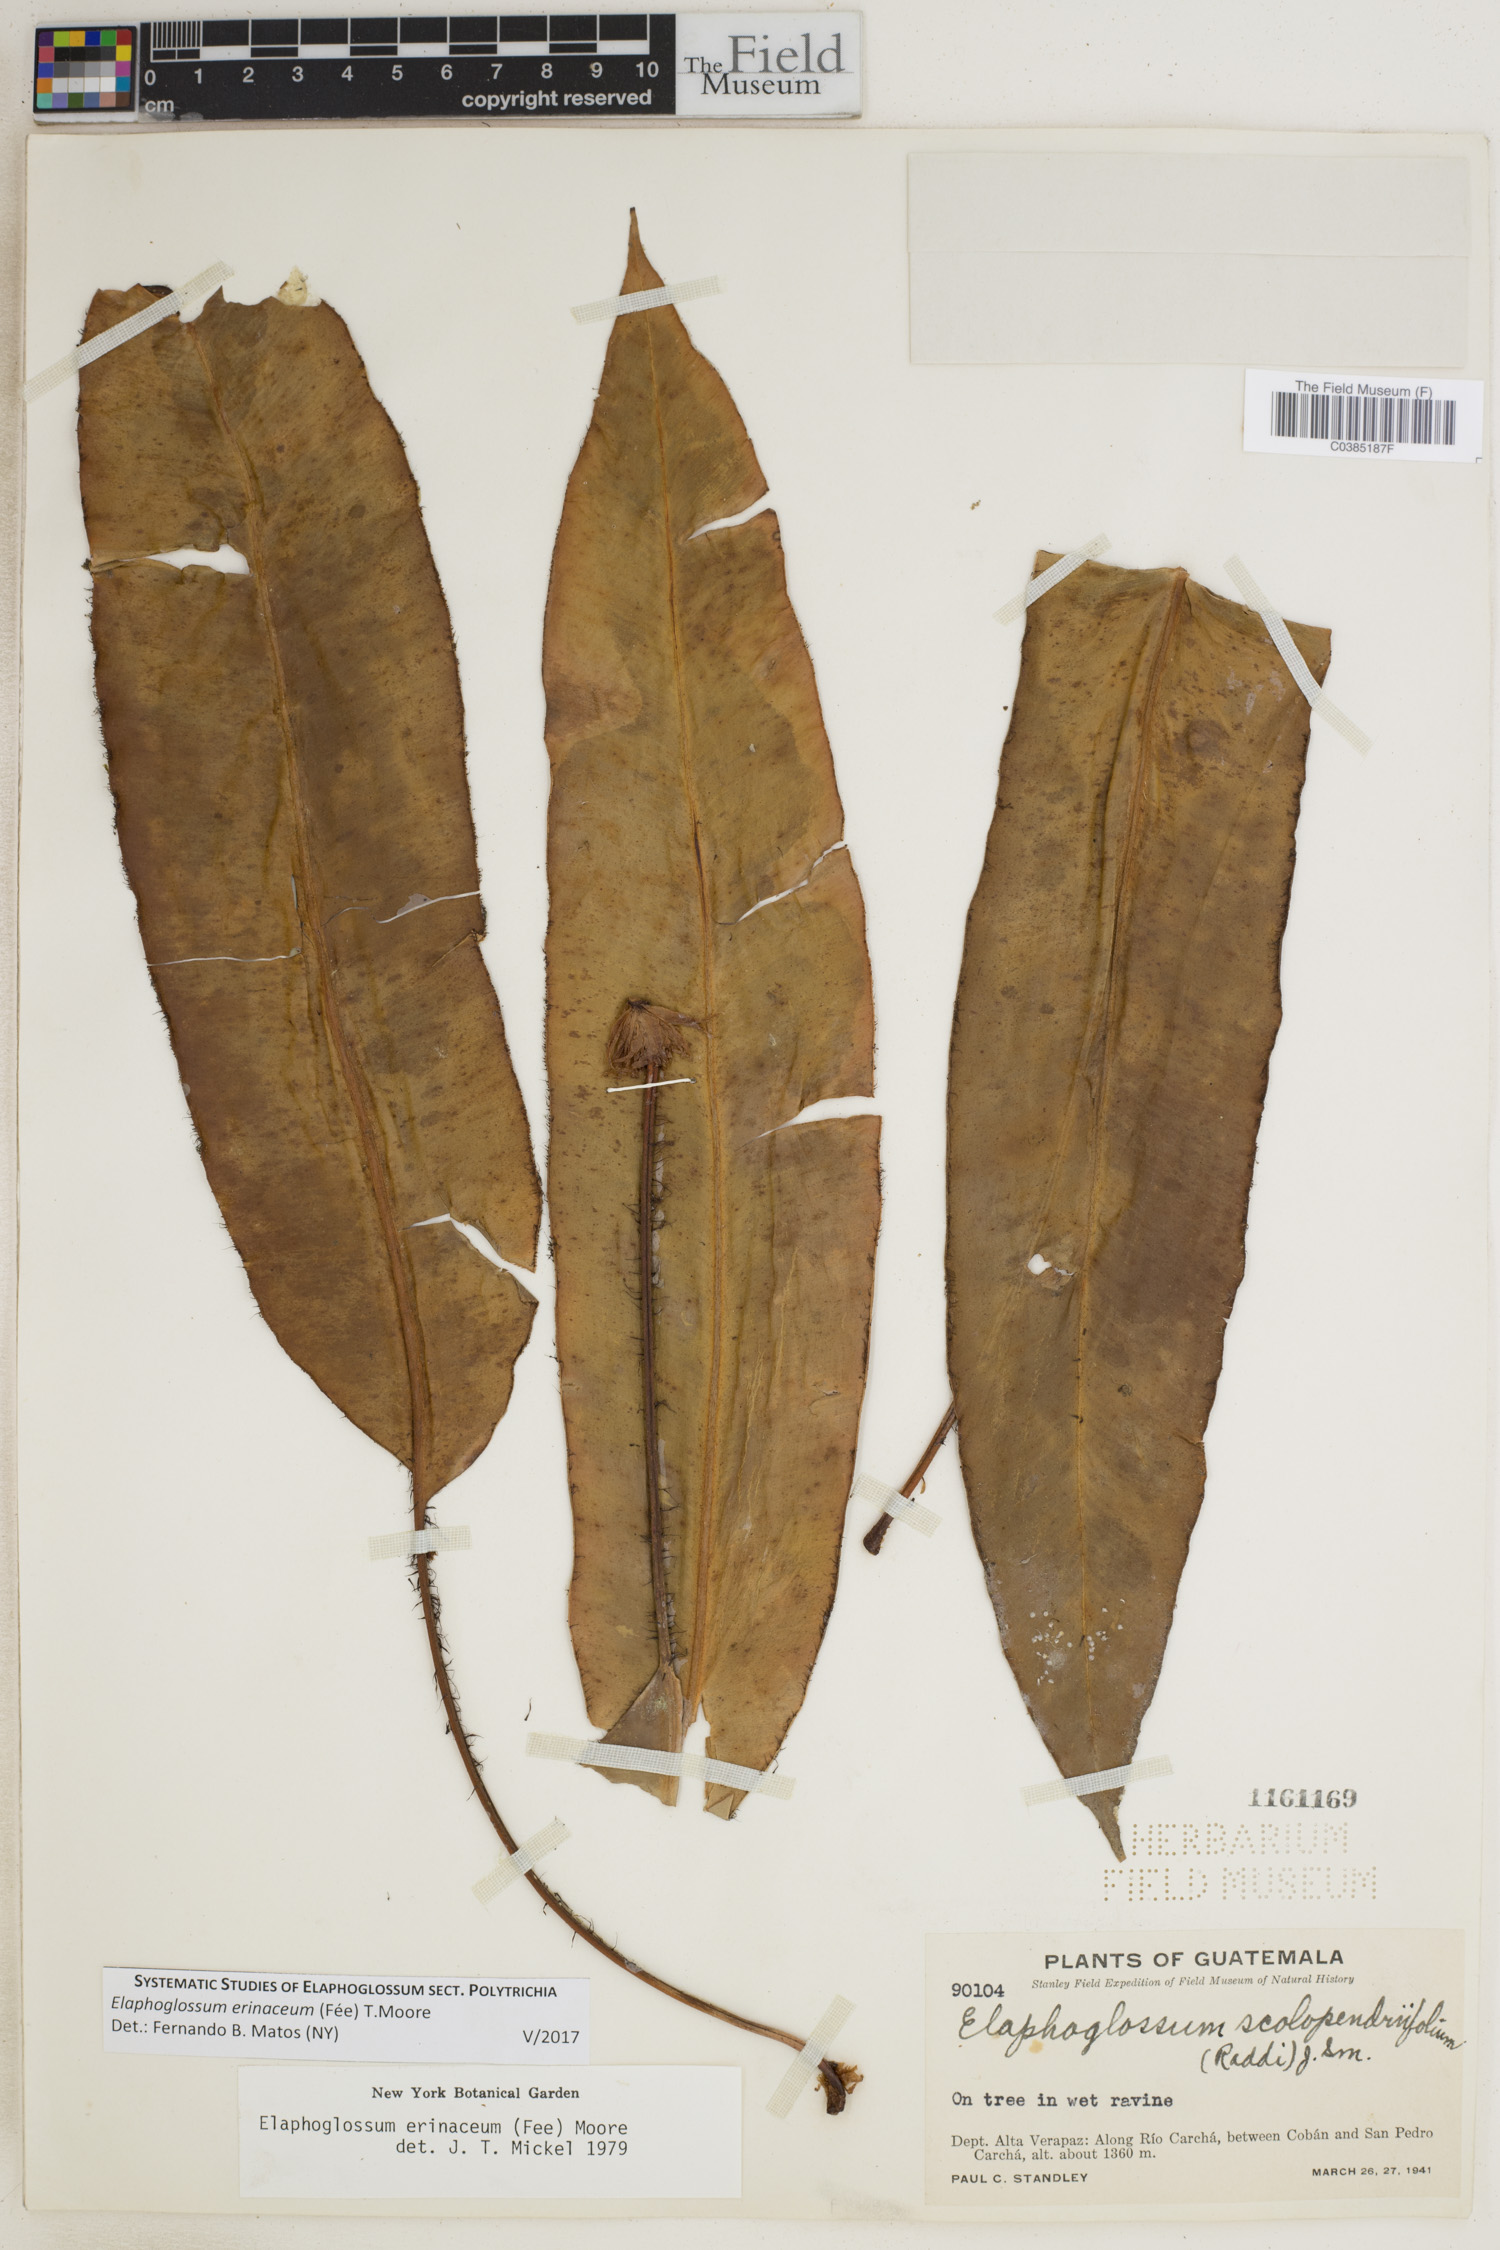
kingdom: Plantae
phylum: Tracheophyta
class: Polypodiopsida
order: Polypodiales
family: Dryopteridaceae
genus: Elaphoglossum
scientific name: Elaphoglossum erinaceum
